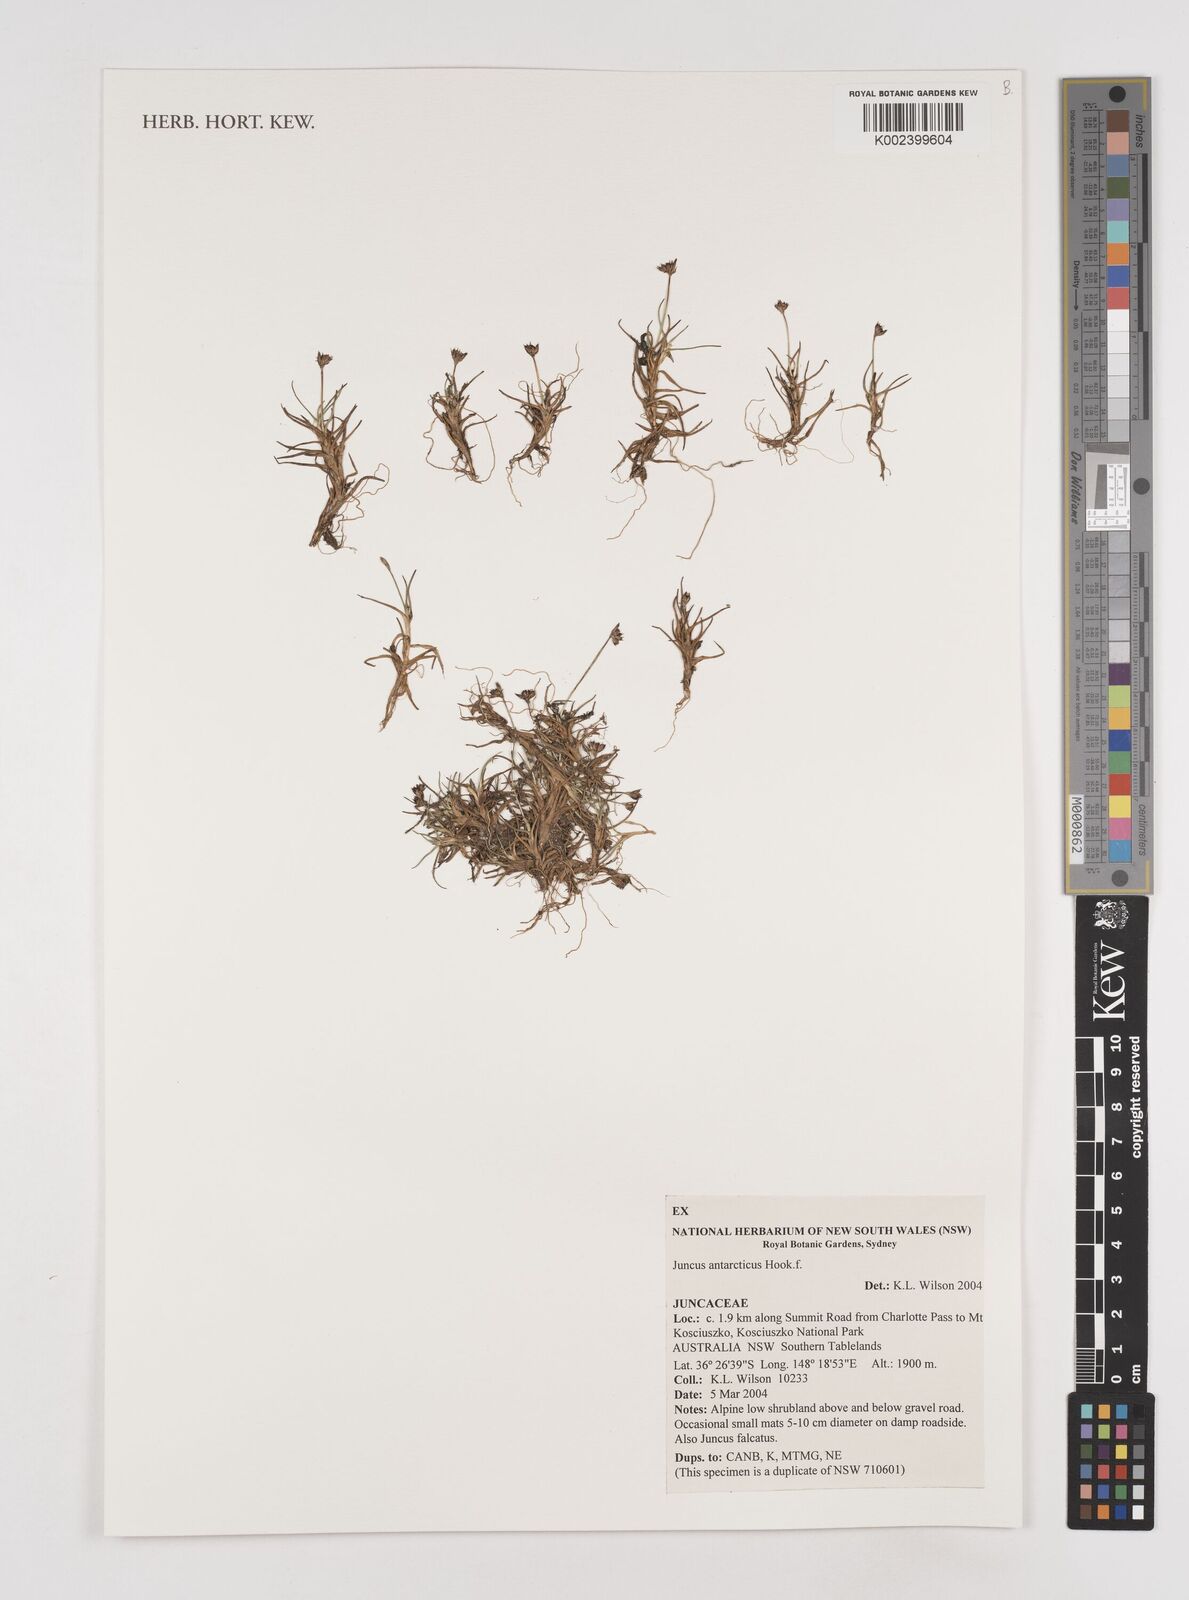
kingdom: Plantae
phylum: Tracheophyta
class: Liliopsida
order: Poales
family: Juncaceae
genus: Juncus
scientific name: Juncus antarcticus
